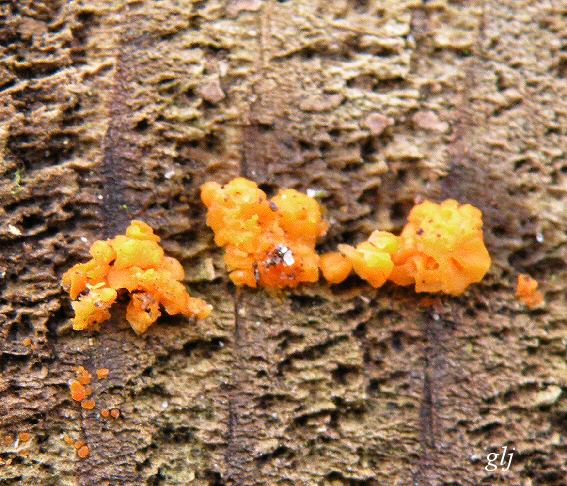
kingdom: Fungi
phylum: Basidiomycota
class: Dacrymycetes
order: Dacrymycetales
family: Dacrymycetaceae
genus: Dacrymyces
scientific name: Dacrymyces stillatus
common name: almindelig tåresvamp
